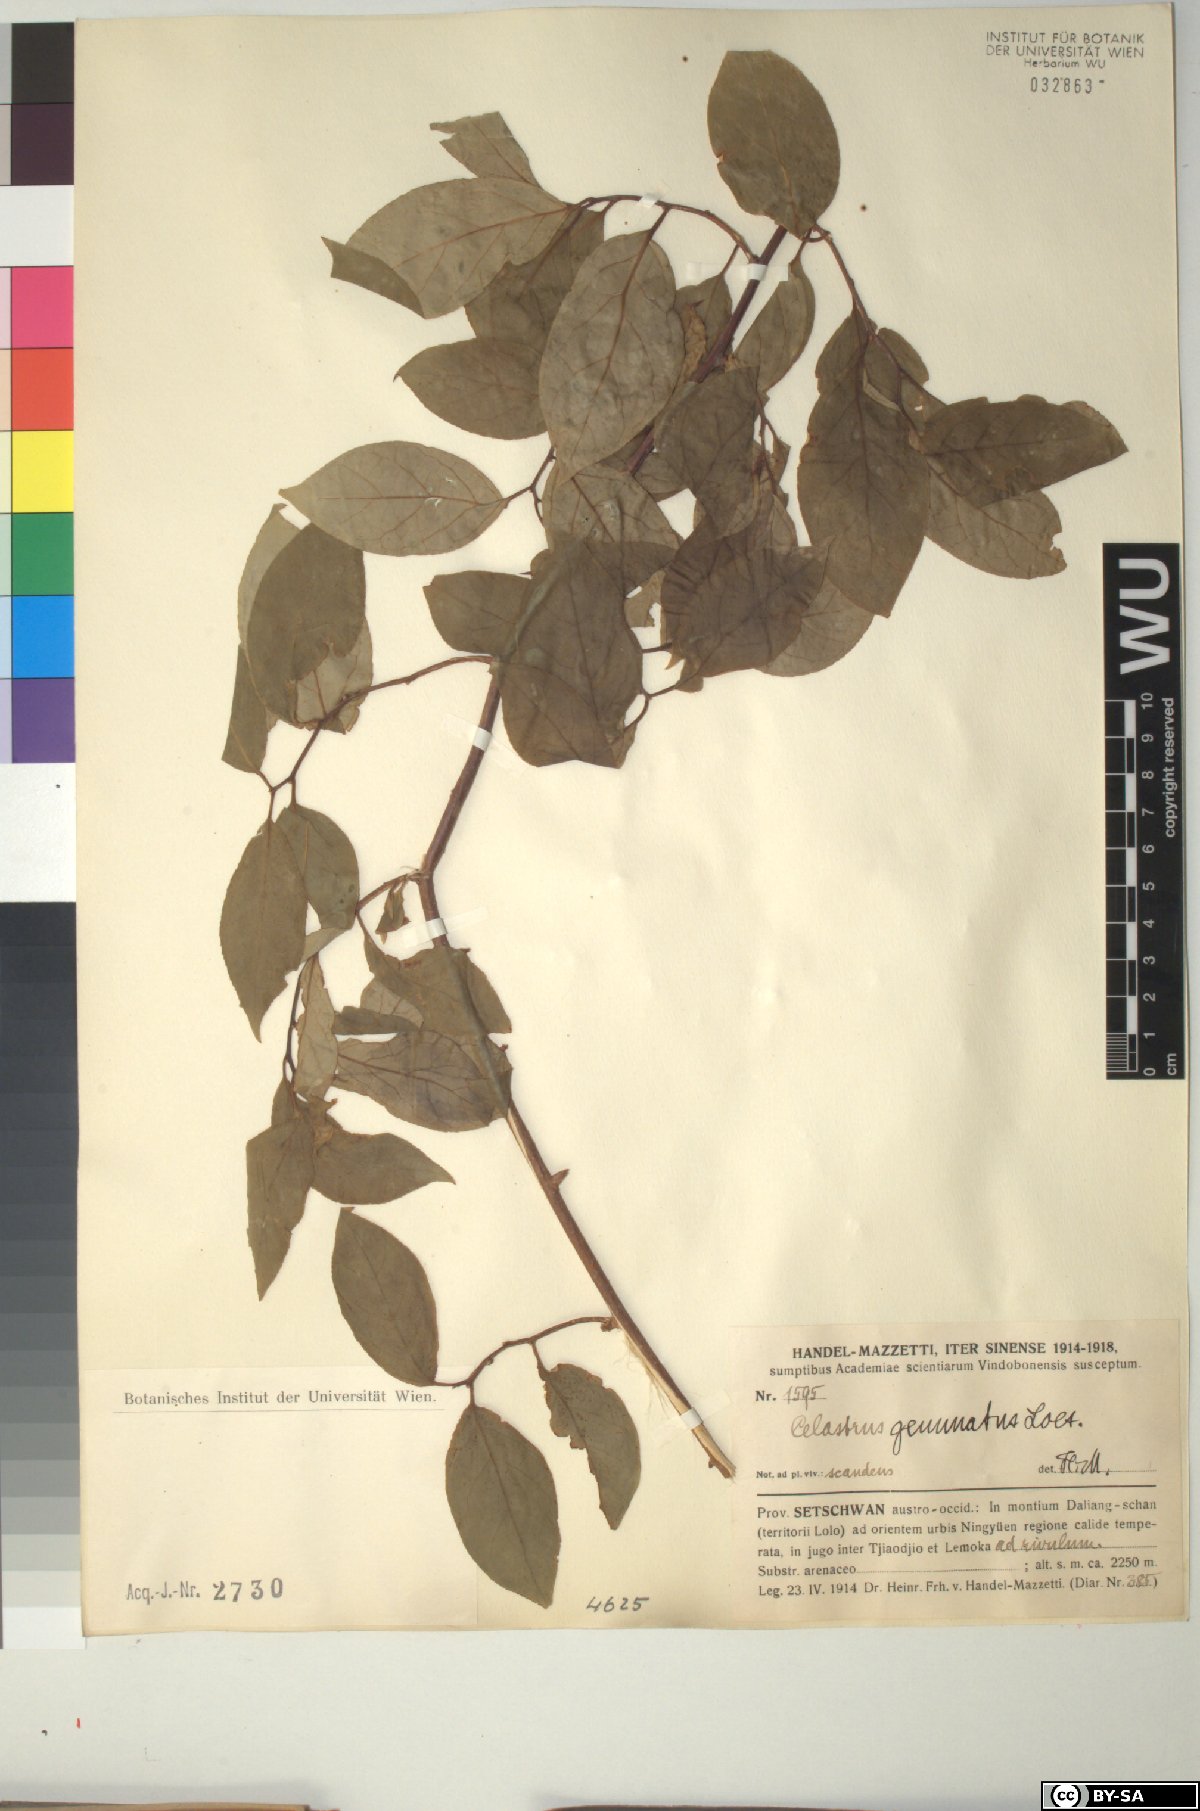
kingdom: Plantae
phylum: Tracheophyta
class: Magnoliopsida
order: Celastrales
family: Celastraceae
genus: Celastrus
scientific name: Celastrus gemmatus
